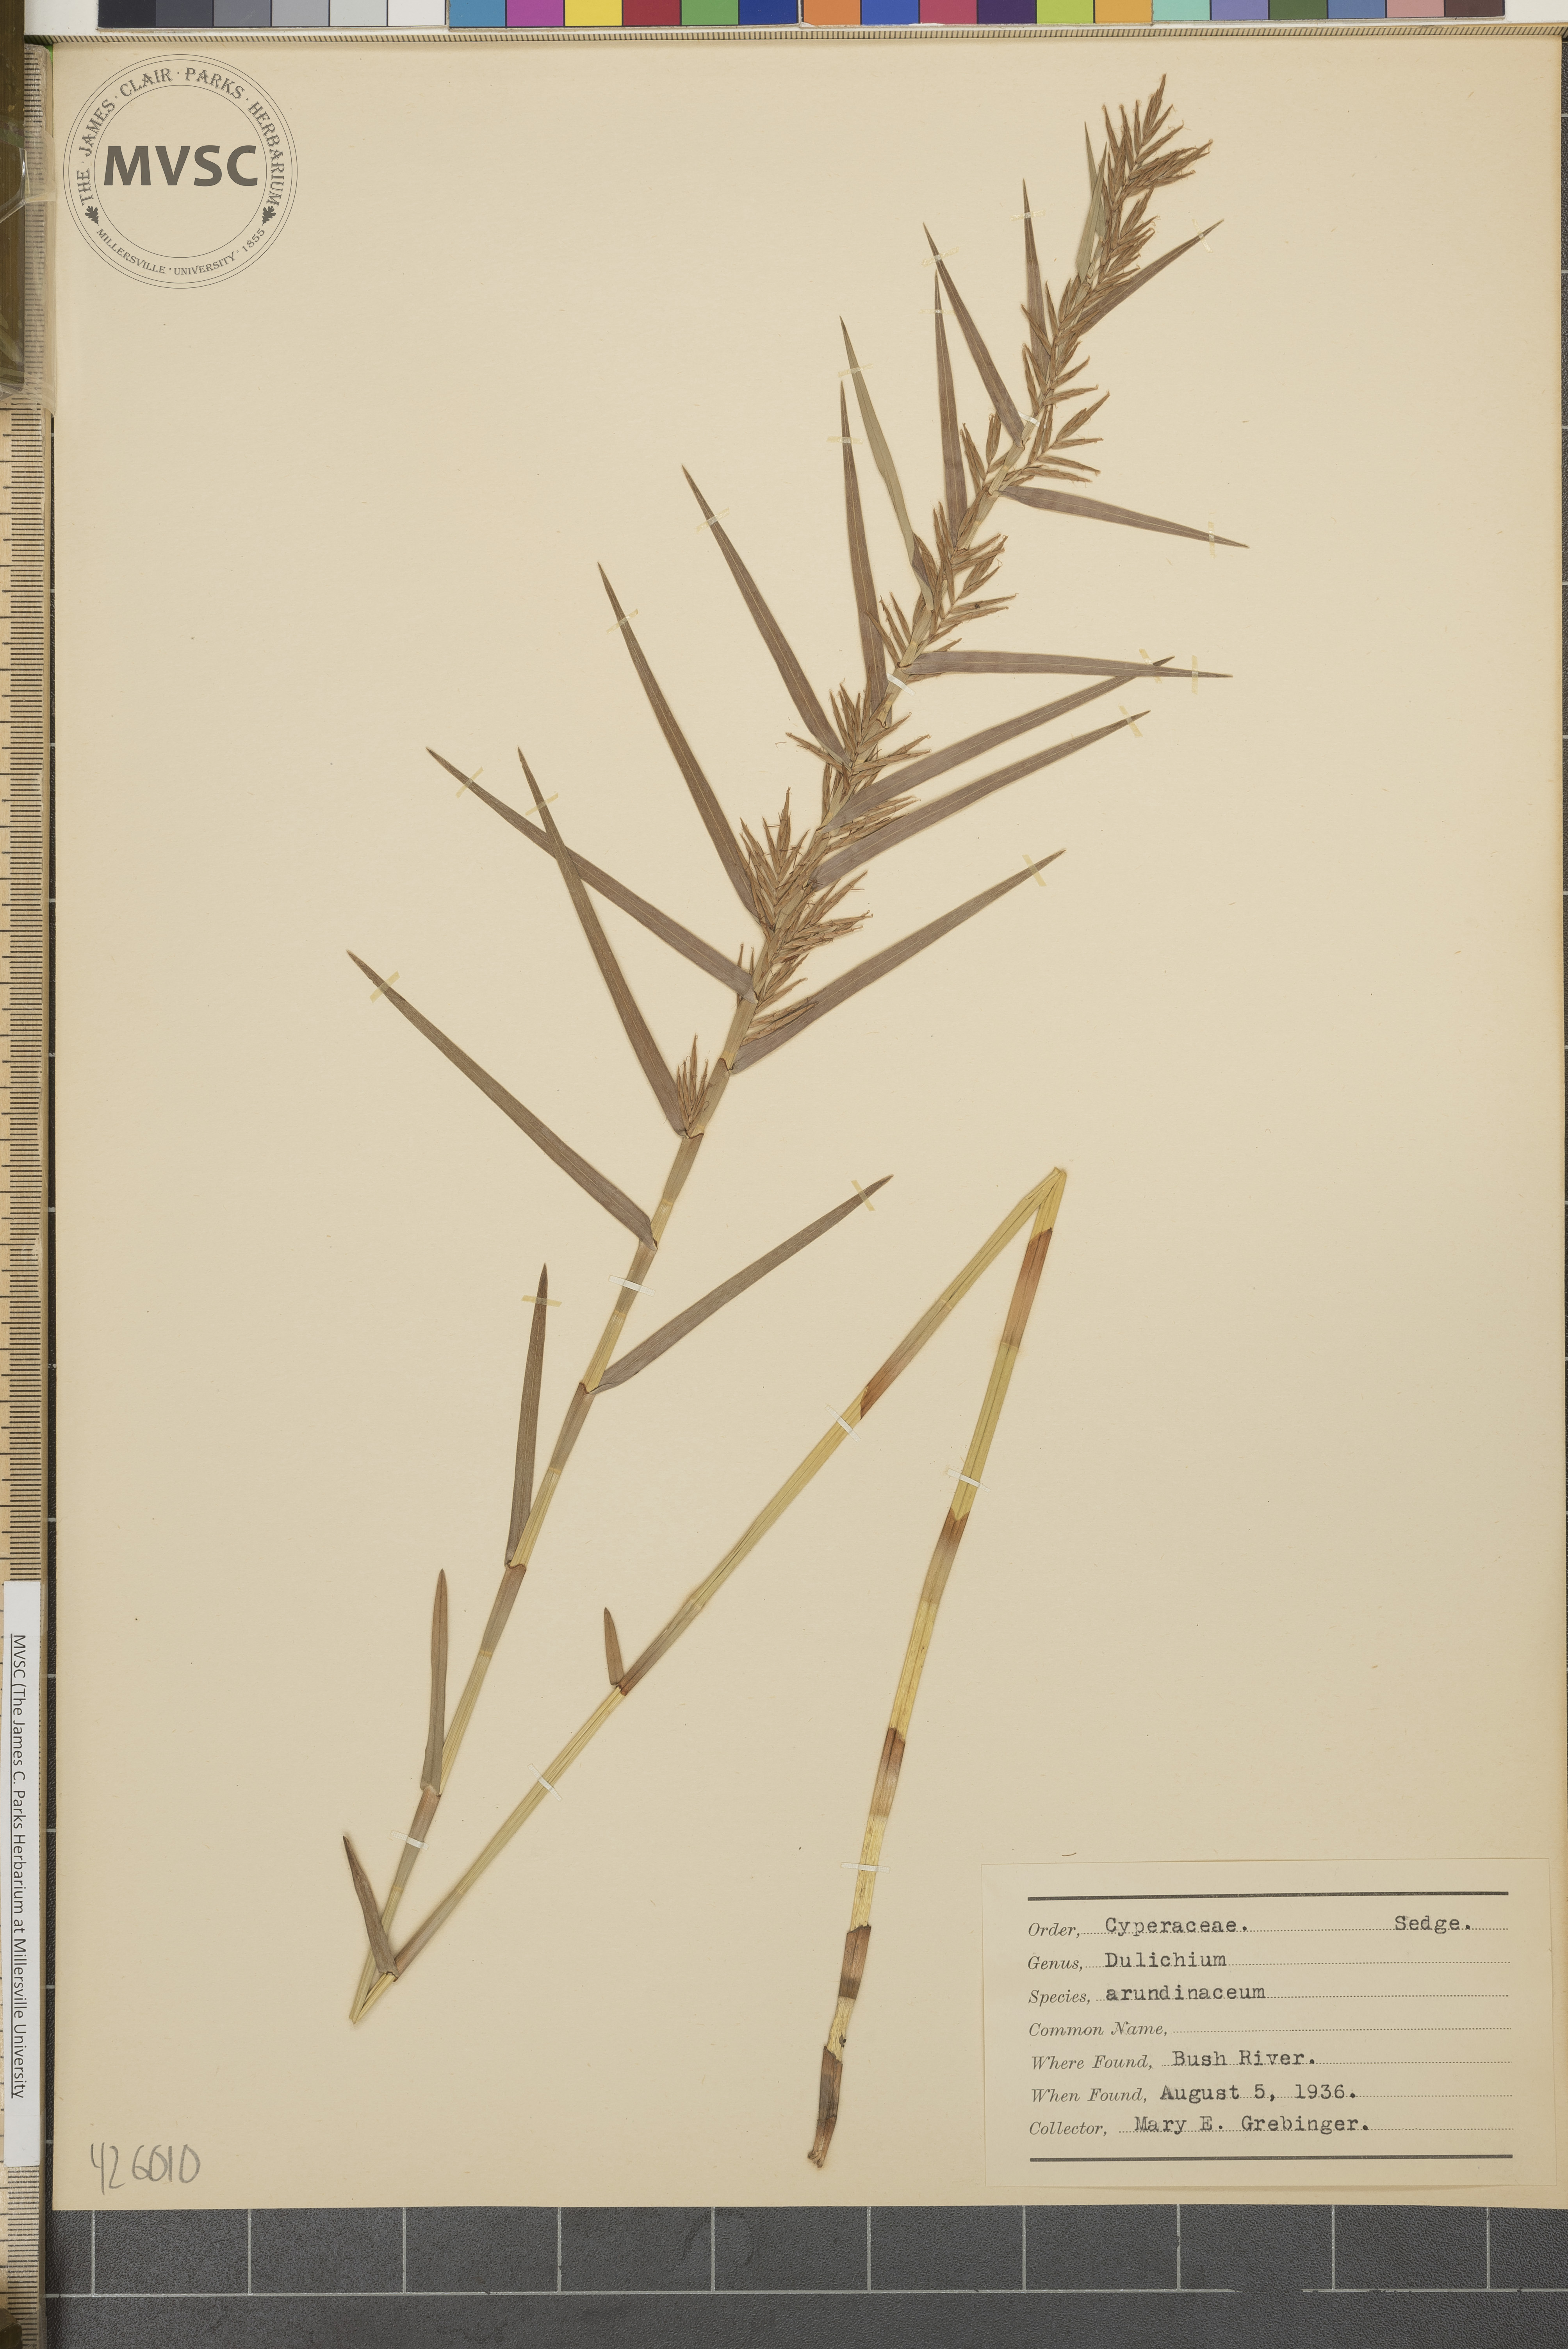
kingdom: Plantae
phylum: Tracheophyta
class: Liliopsida
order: Poales
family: Cyperaceae
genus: Dulichium
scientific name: Dulichium arundinaceum
